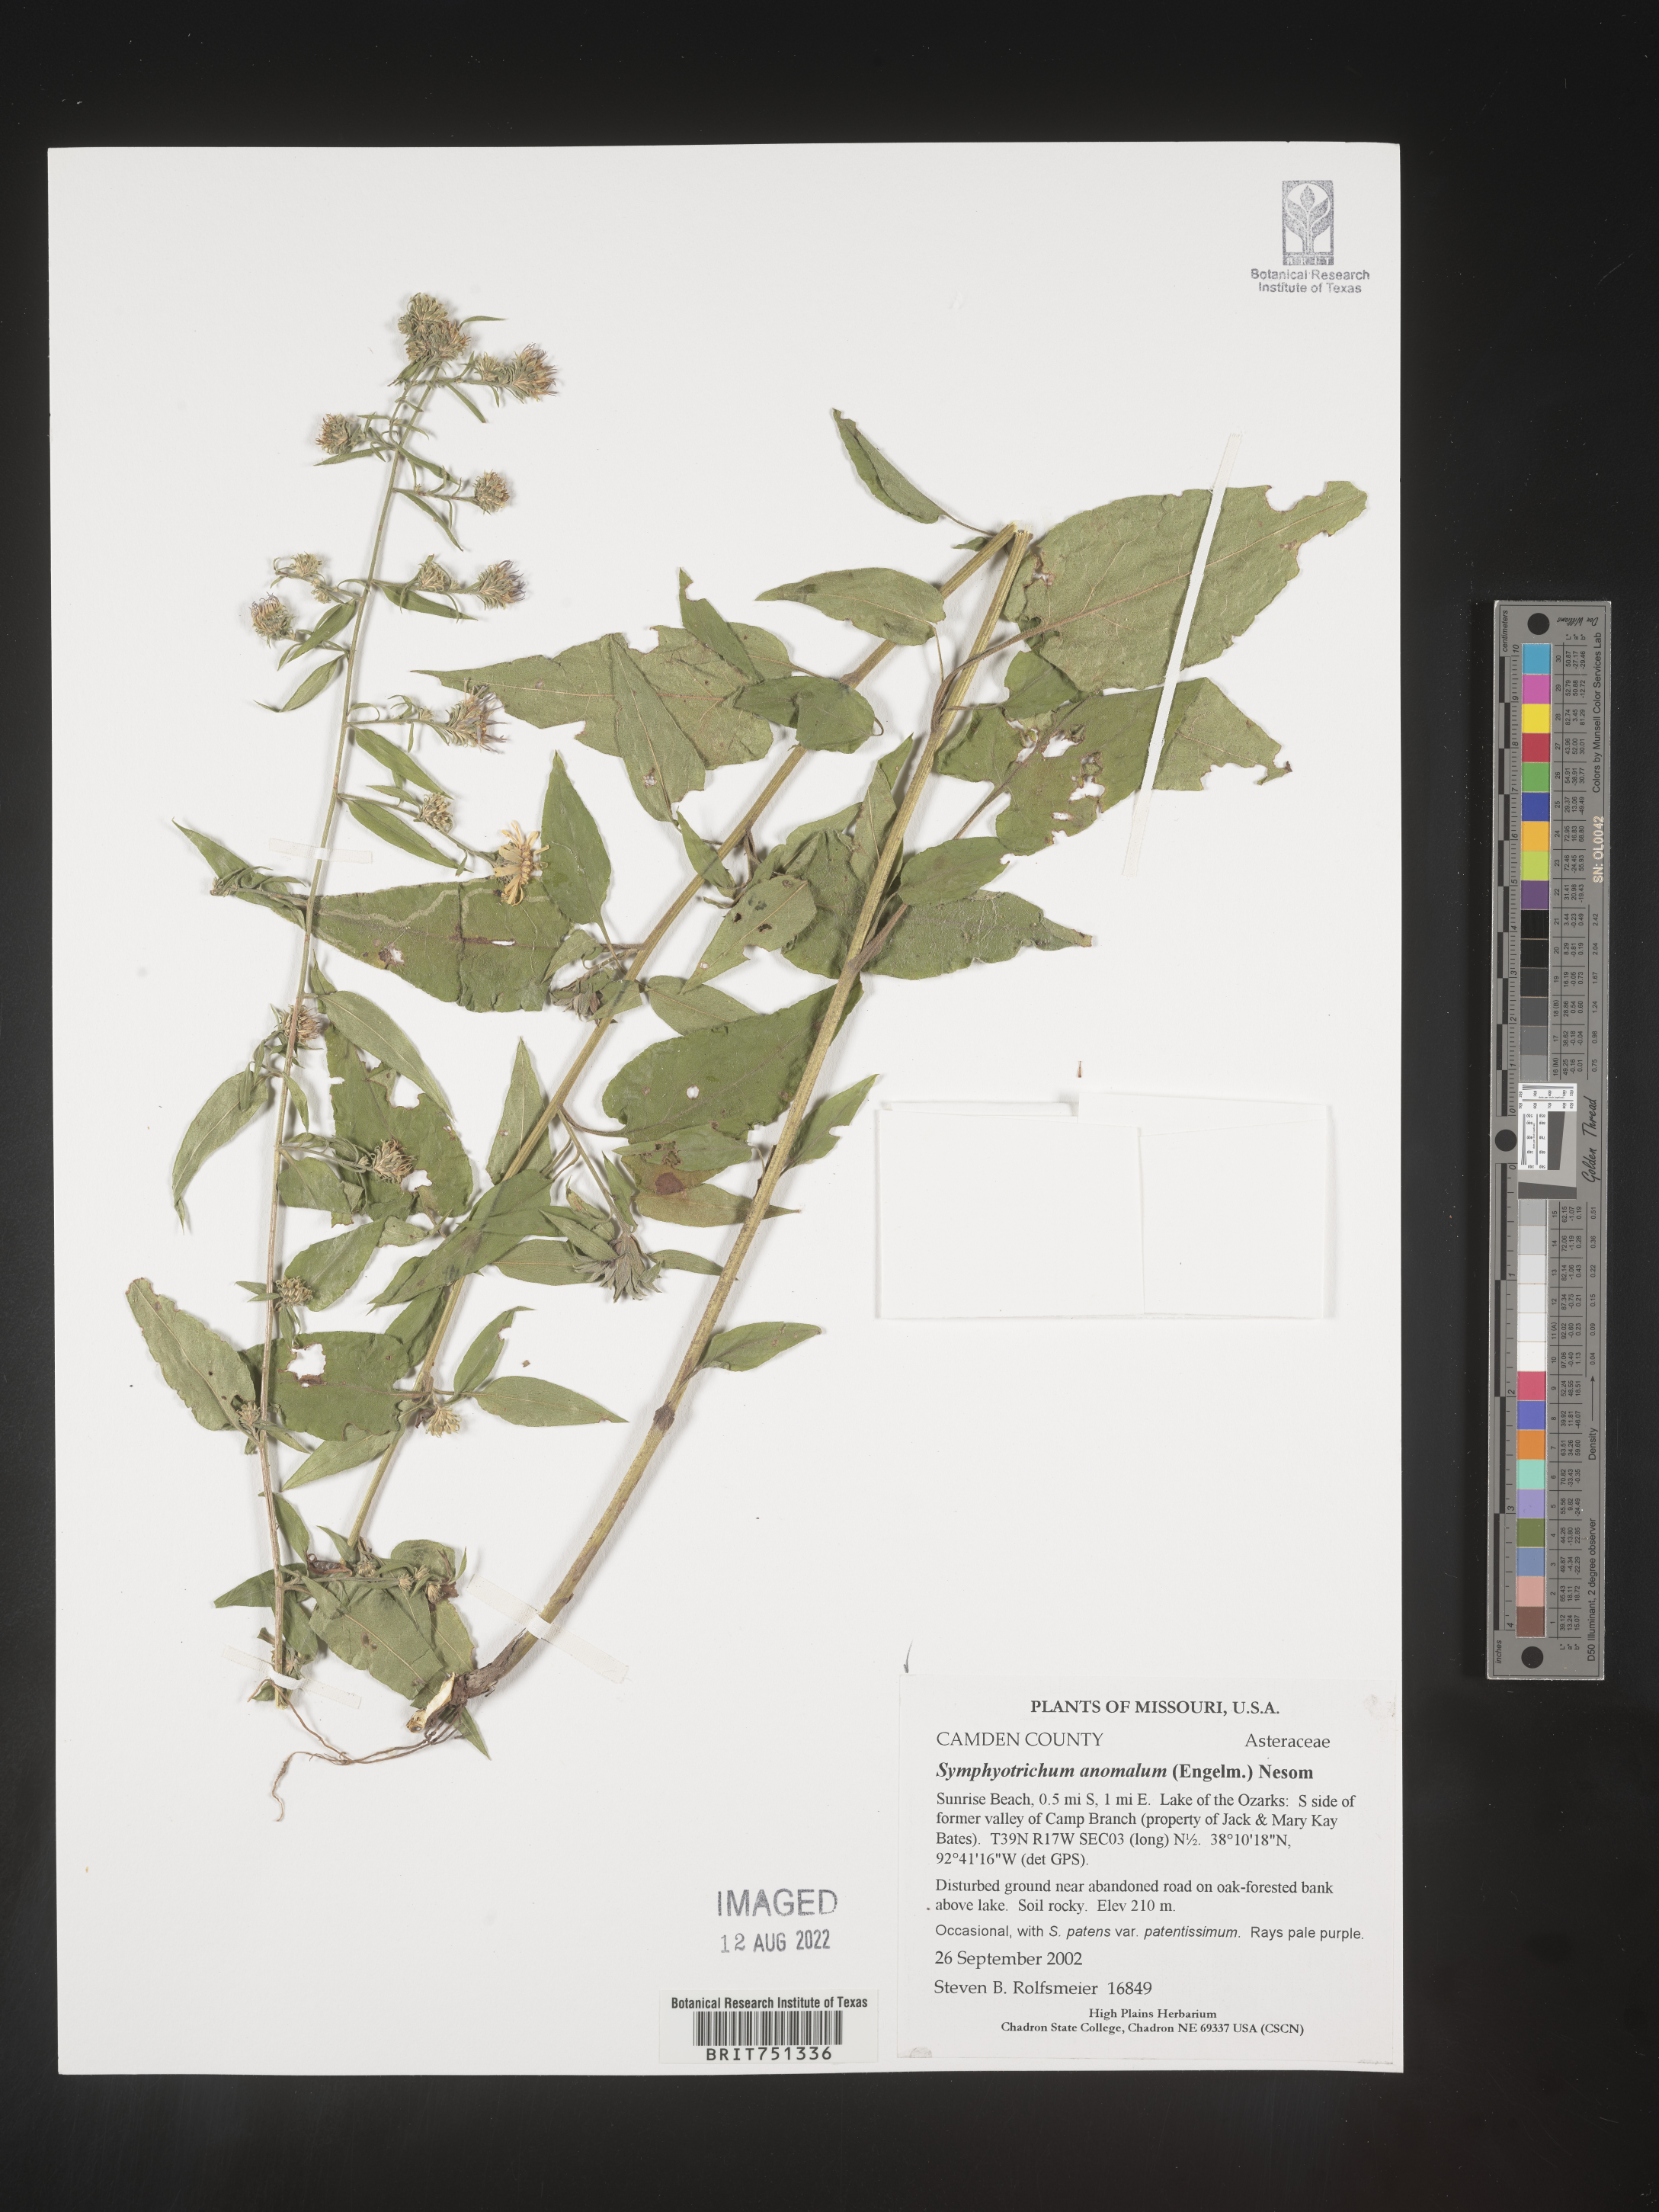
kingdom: Plantae
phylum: Tracheophyta
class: Magnoliopsida
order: Asterales
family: Asteraceae
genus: Symphyotrichum
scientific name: Symphyotrichum anomalum
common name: Many-ray aster
